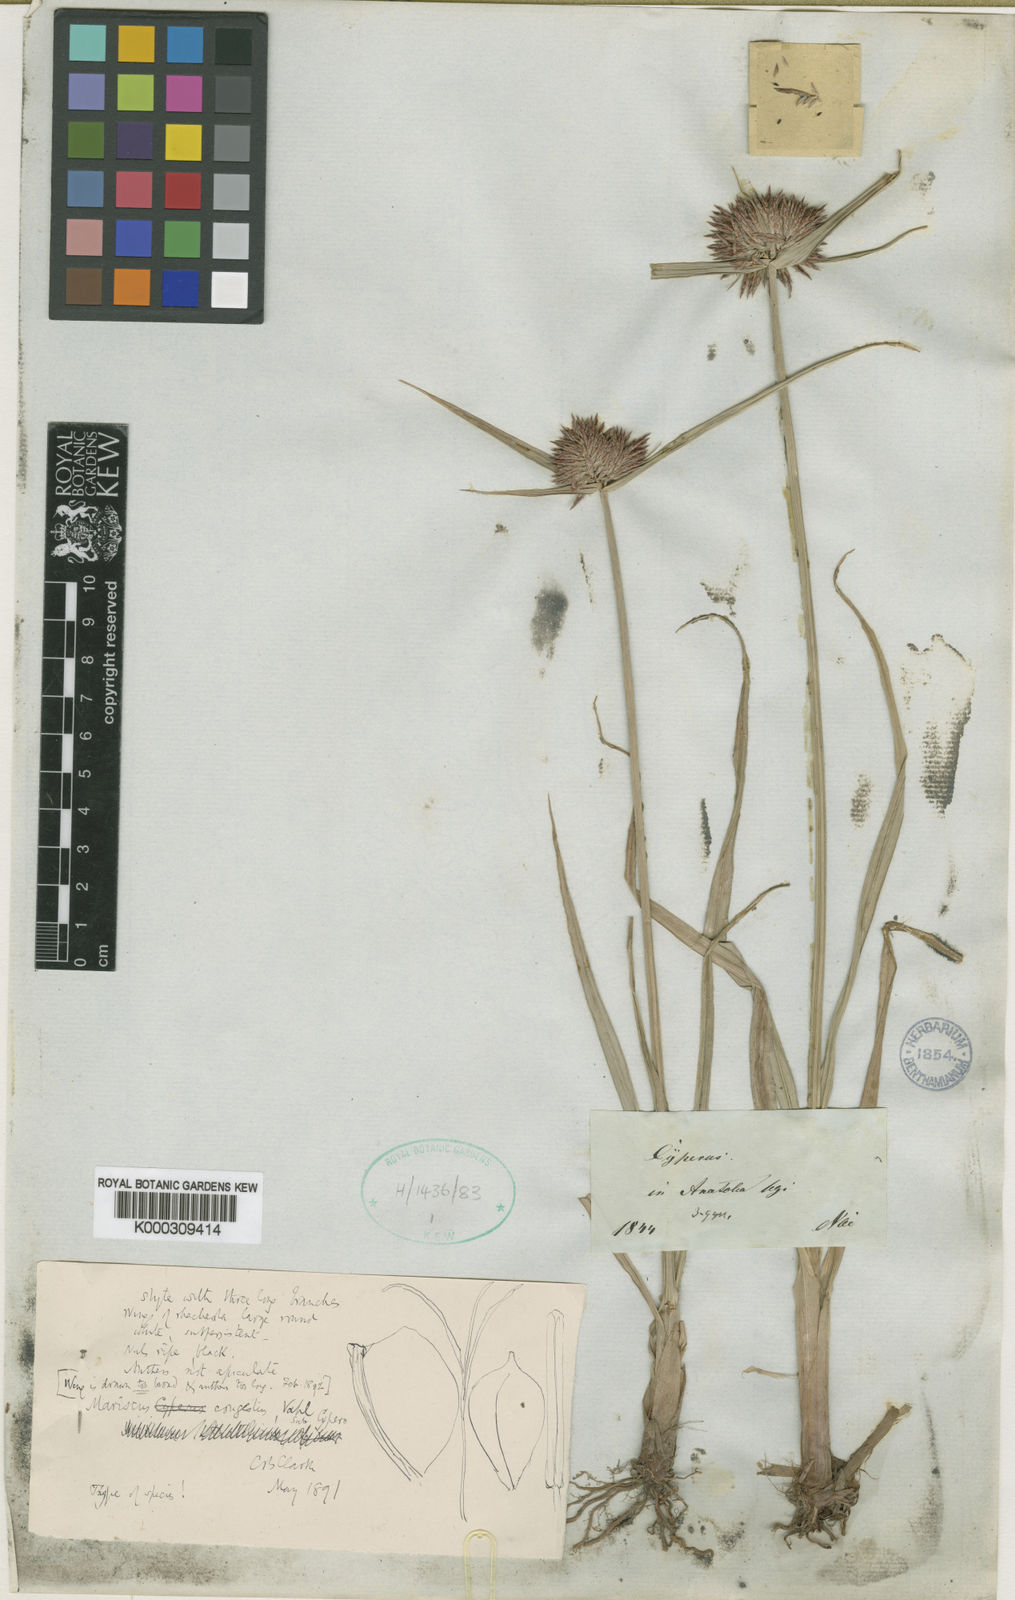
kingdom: Plantae
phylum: Tracheophyta
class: Liliopsida
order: Poales
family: Cyperaceae
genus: Cyperus
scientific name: Cyperus congestus
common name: Dense flat sedge
